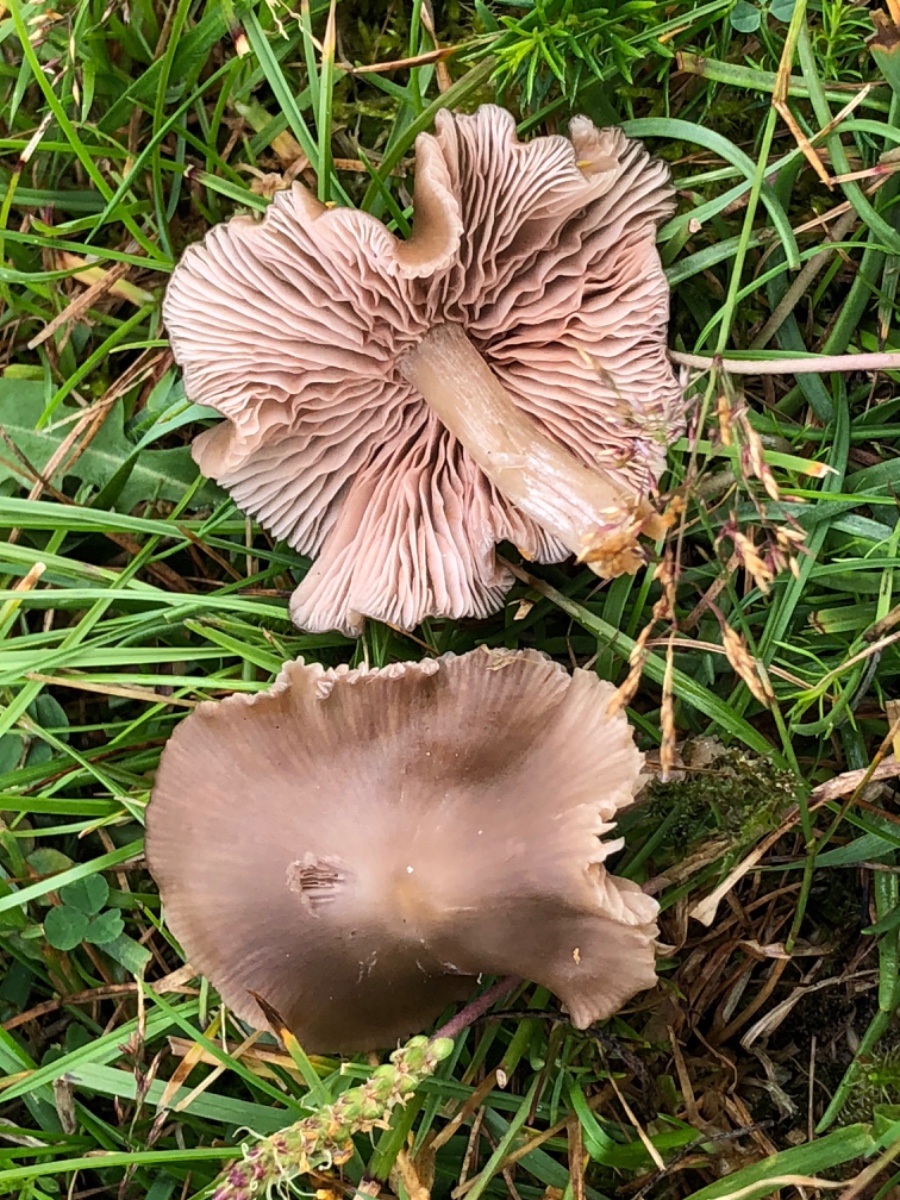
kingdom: Fungi
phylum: Basidiomycota
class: Agaricomycetes
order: Agaricales
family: Entolomataceae
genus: Entoloma
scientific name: Entoloma
